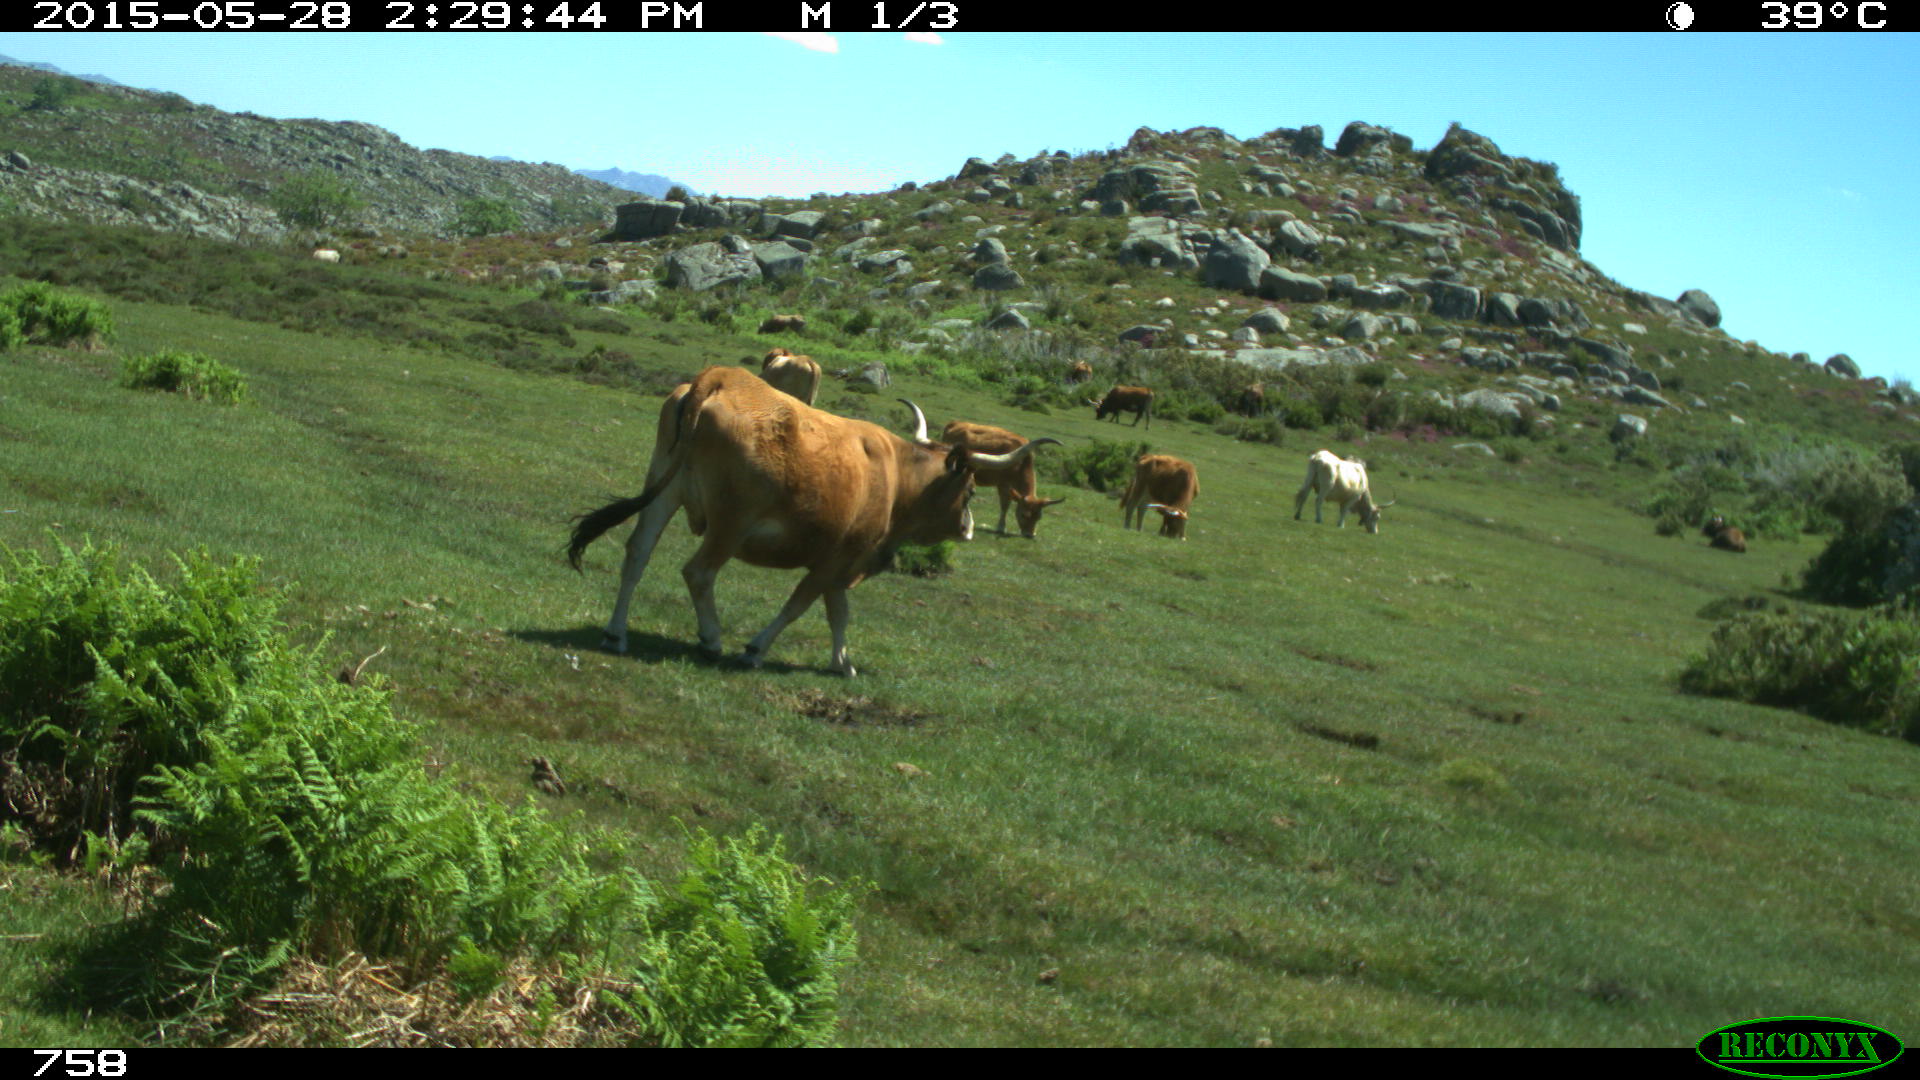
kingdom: Animalia
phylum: Chordata
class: Mammalia
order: Artiodactyla
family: Bovidae
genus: Bos
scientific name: Bos taurus
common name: Domesticated cattle
